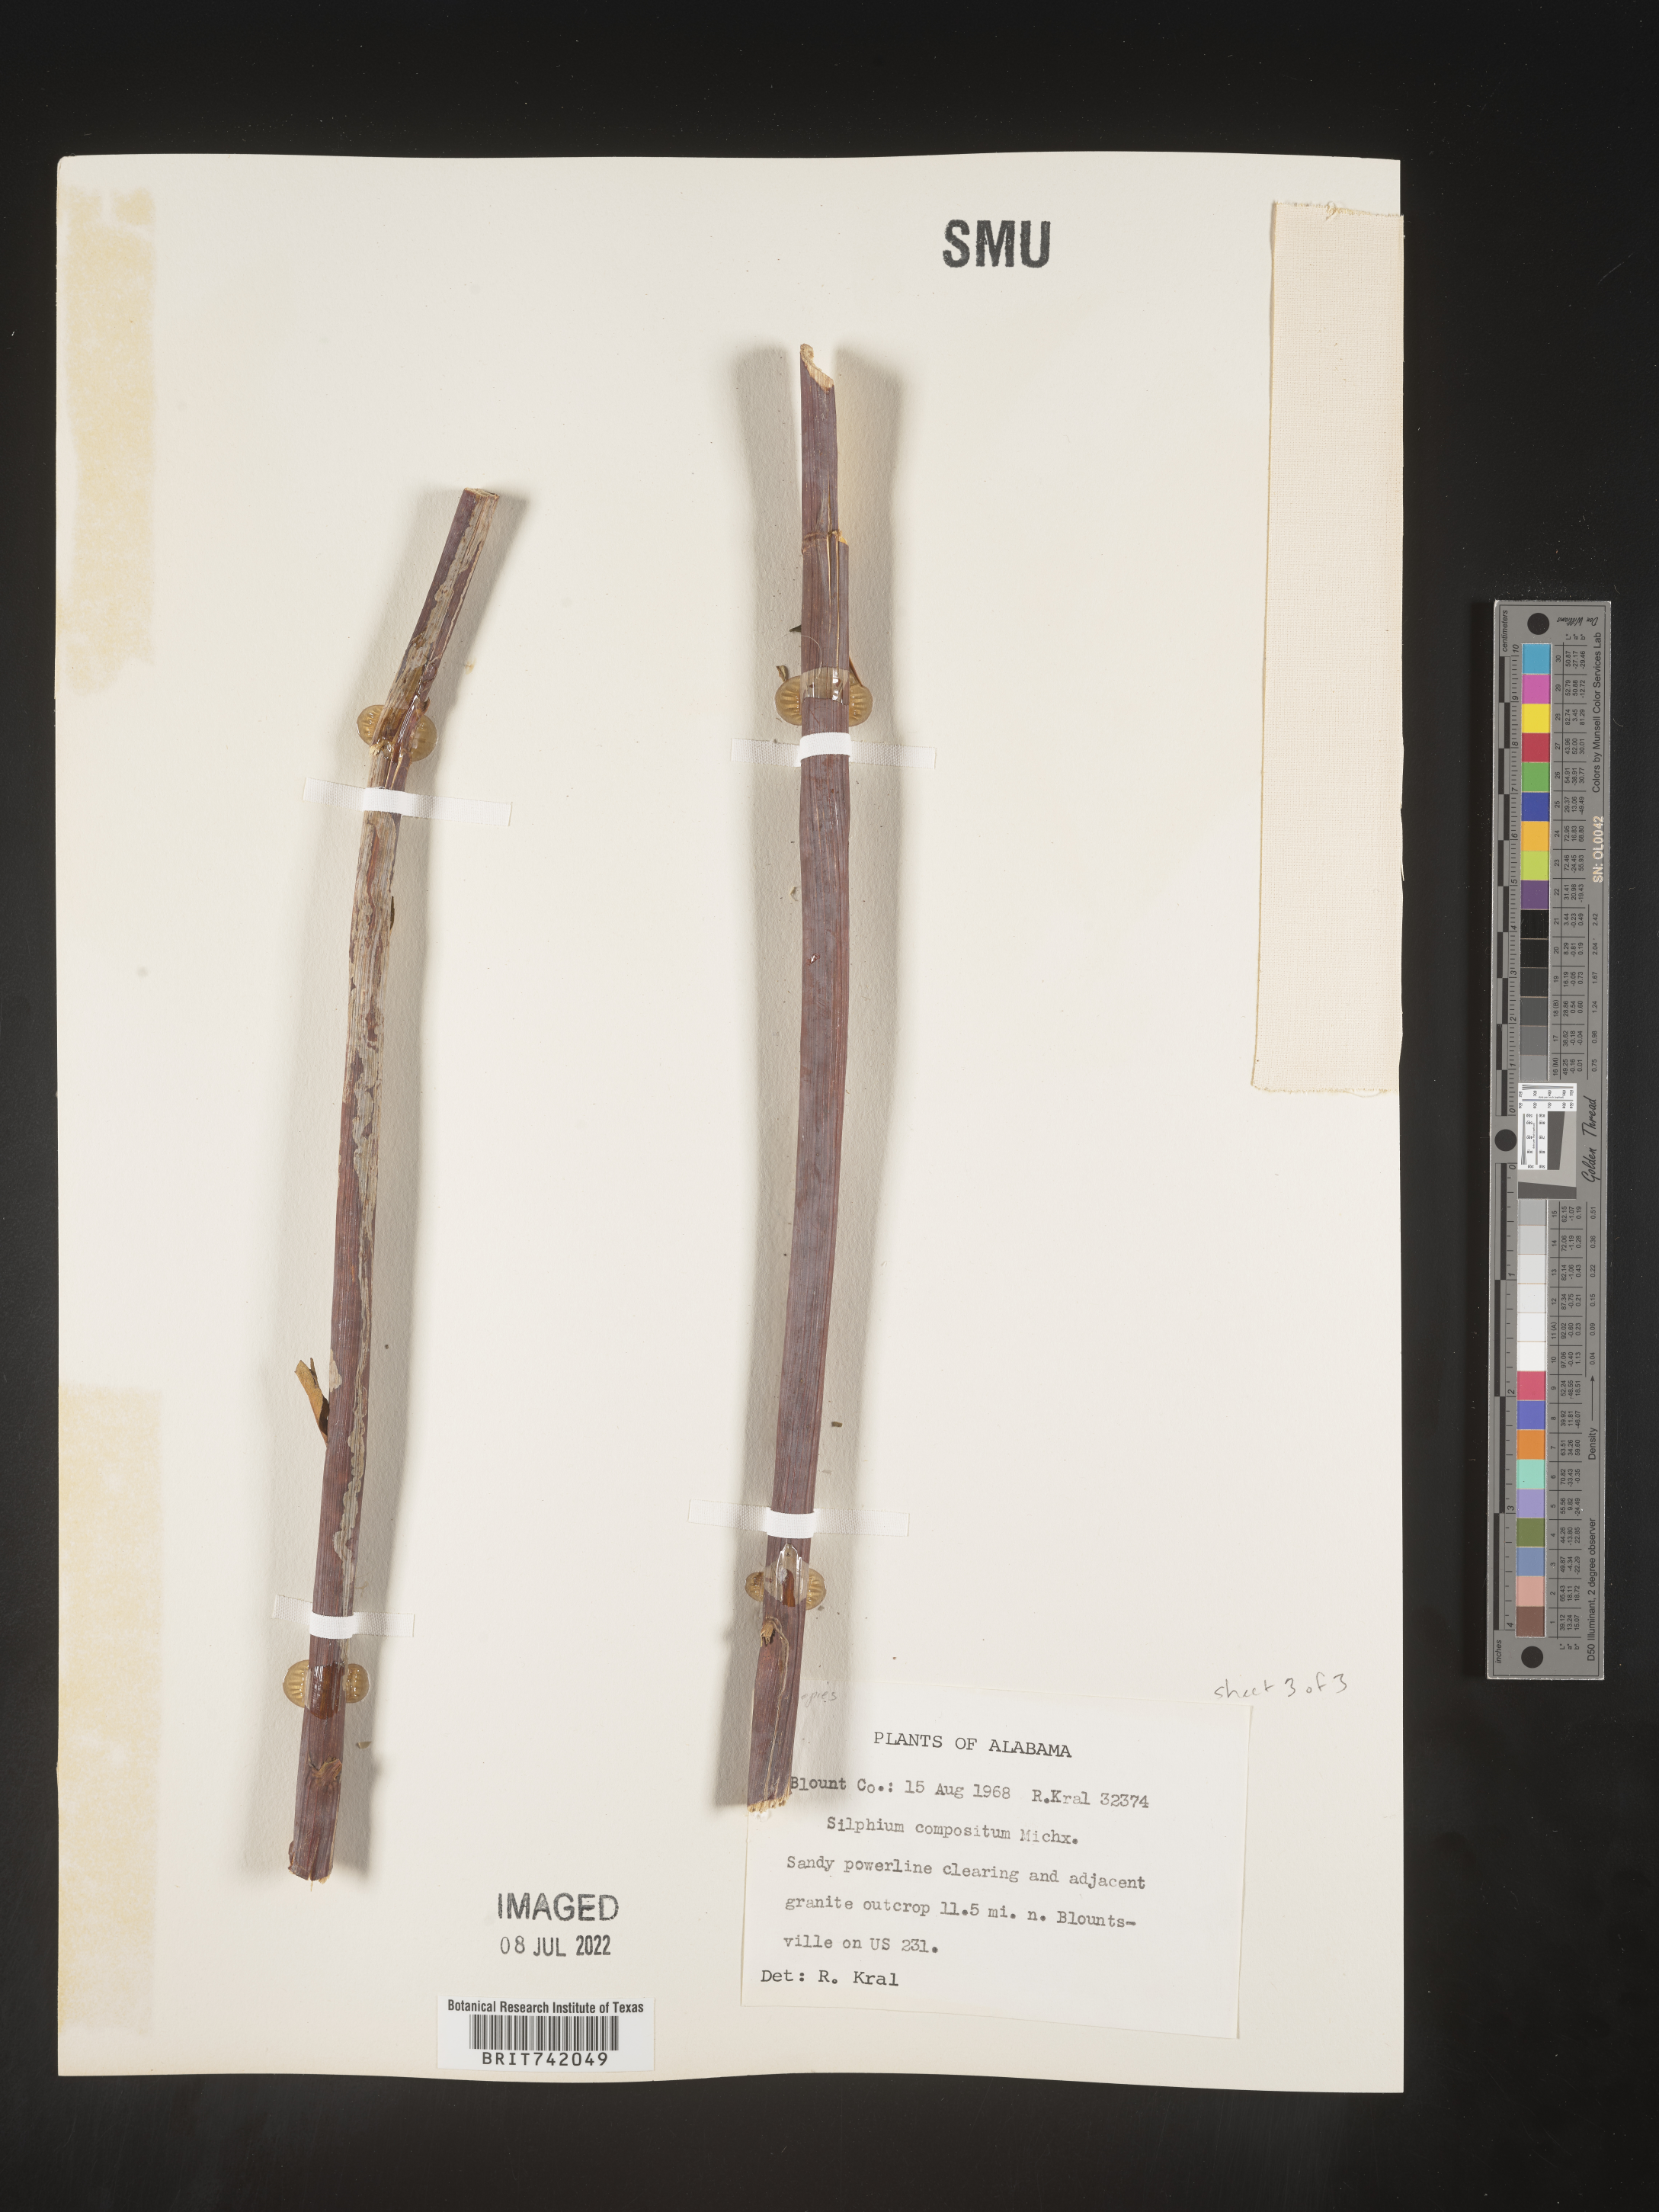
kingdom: Plantae
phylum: Tracheophyta
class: Magnoliopsida
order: Asterales
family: Asteraceae
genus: Silphium
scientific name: Silphium compositum
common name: Lesser basal-leaf rosinweed
